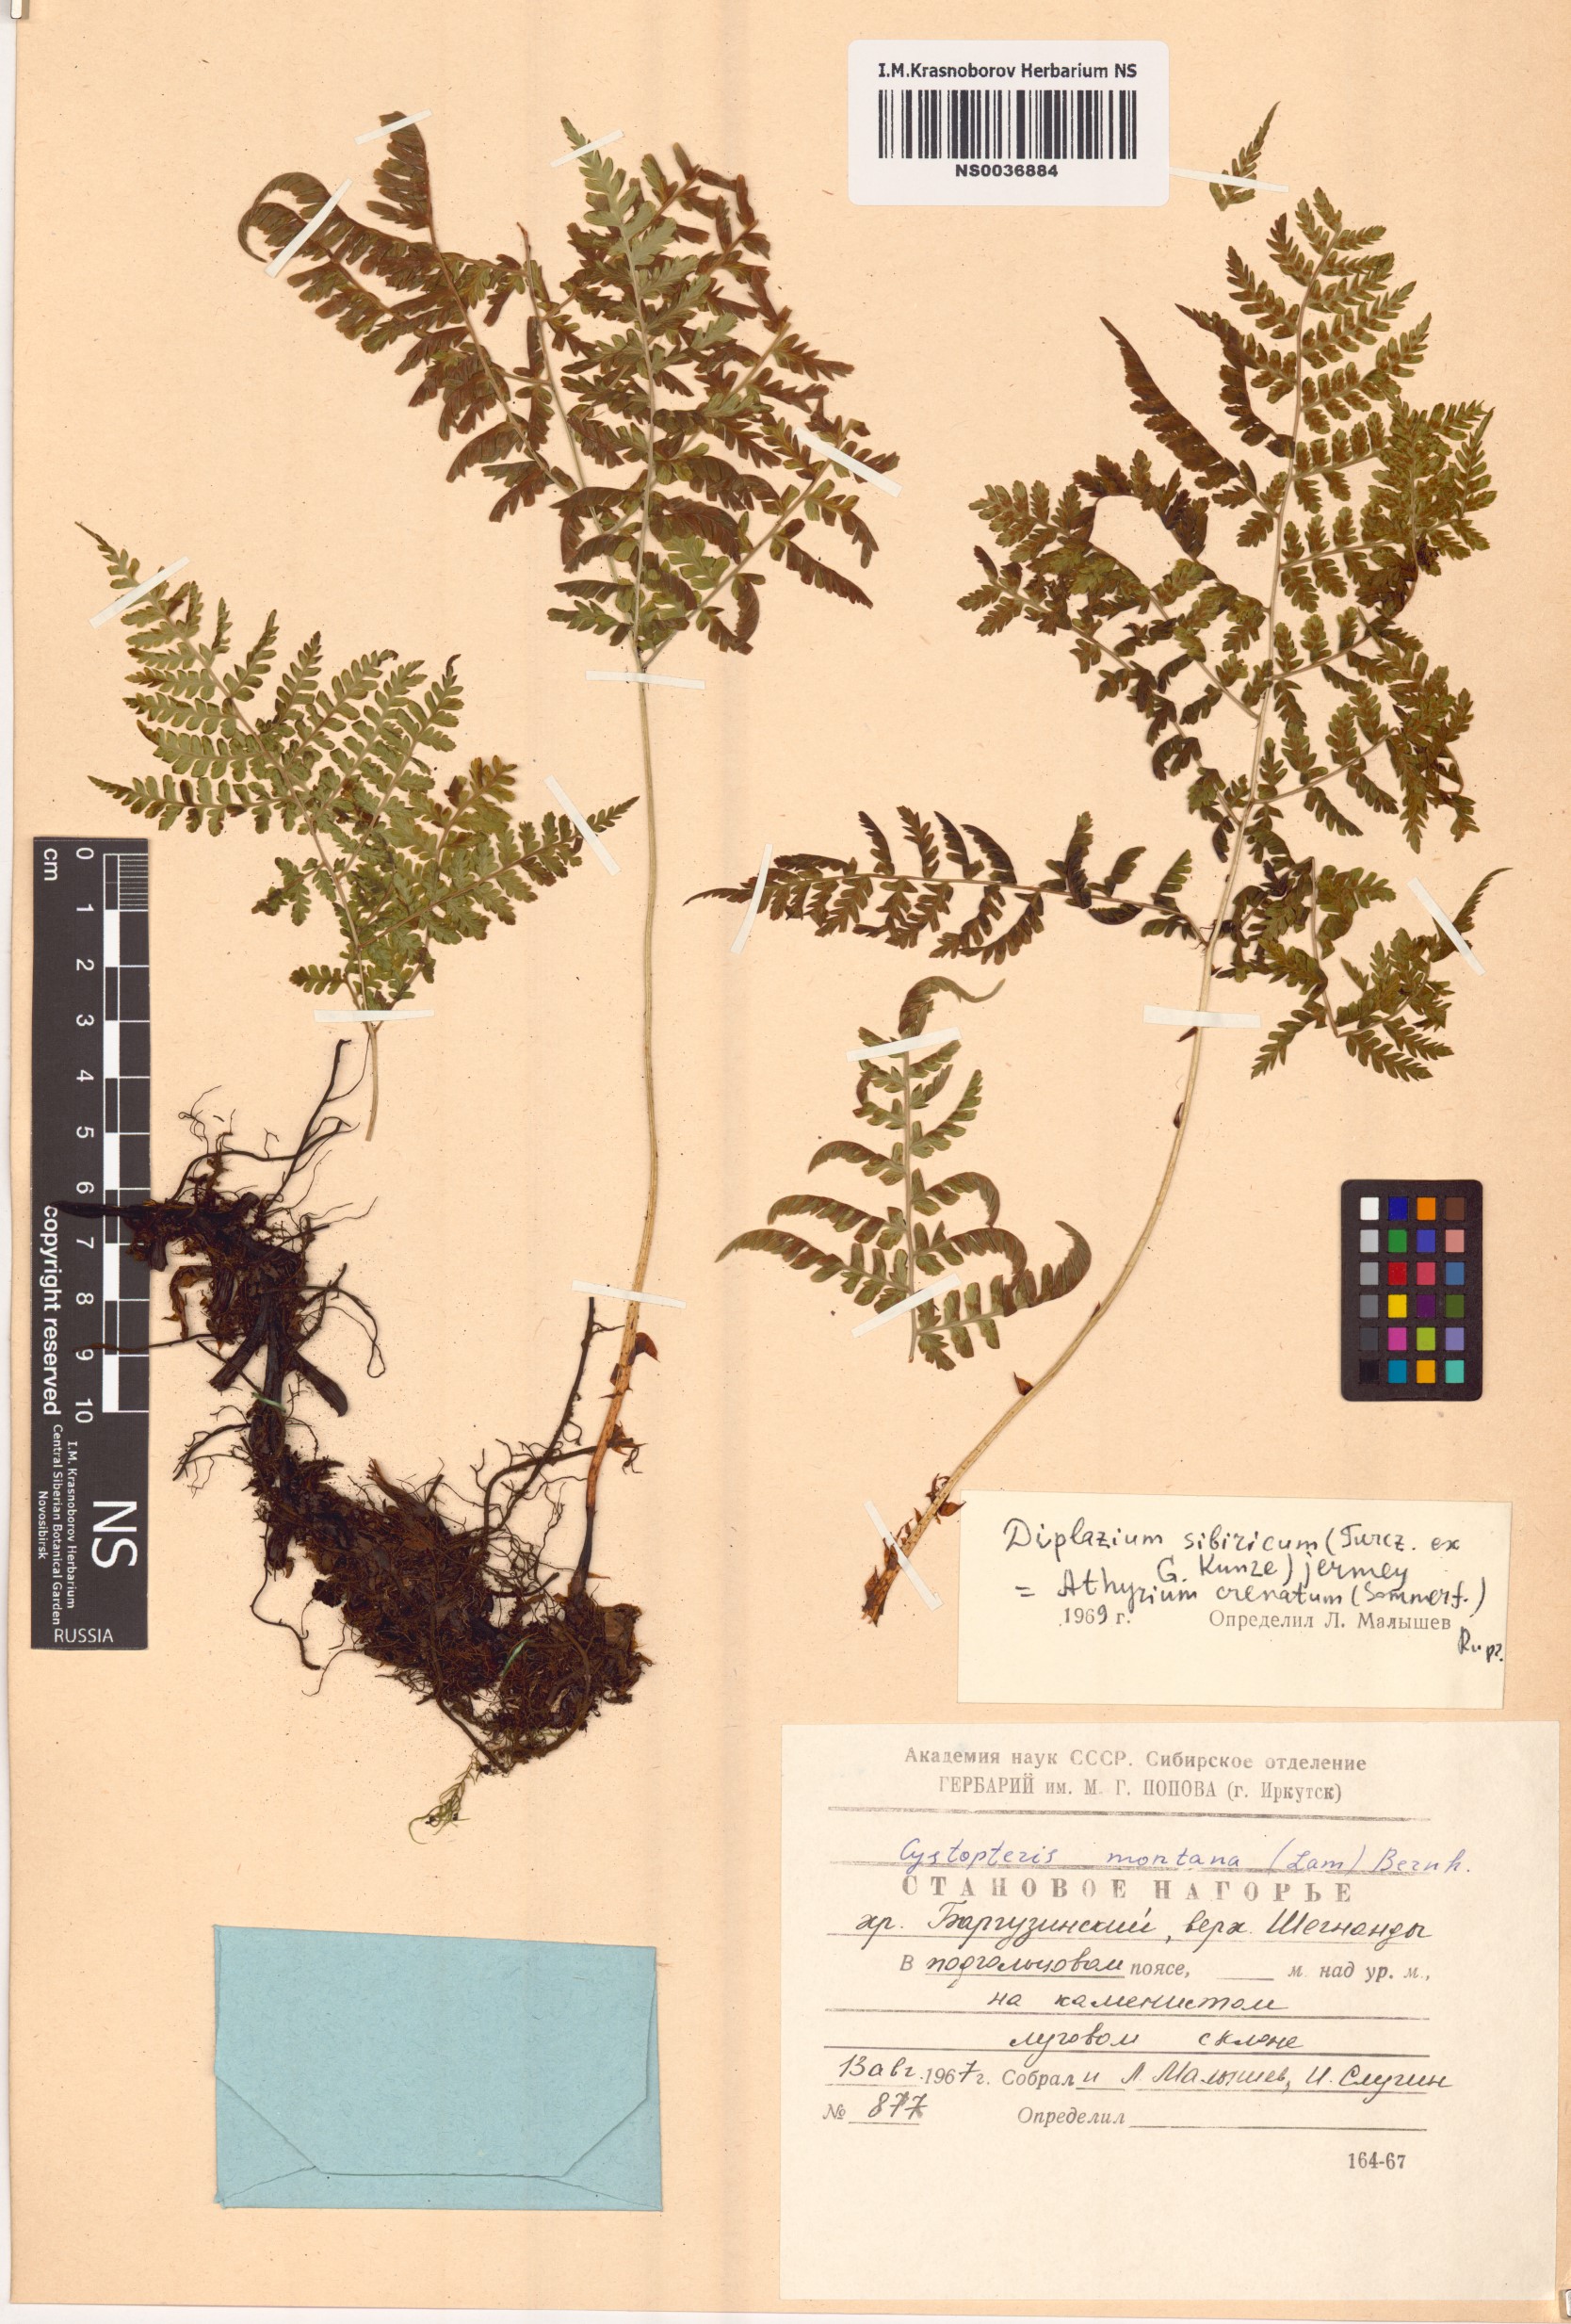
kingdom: Plantae
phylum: Tracheophyta
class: Polypodiopsida
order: Polypodiales
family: Athyriaceae
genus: Diplazium
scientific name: Diplazium sibiricum
